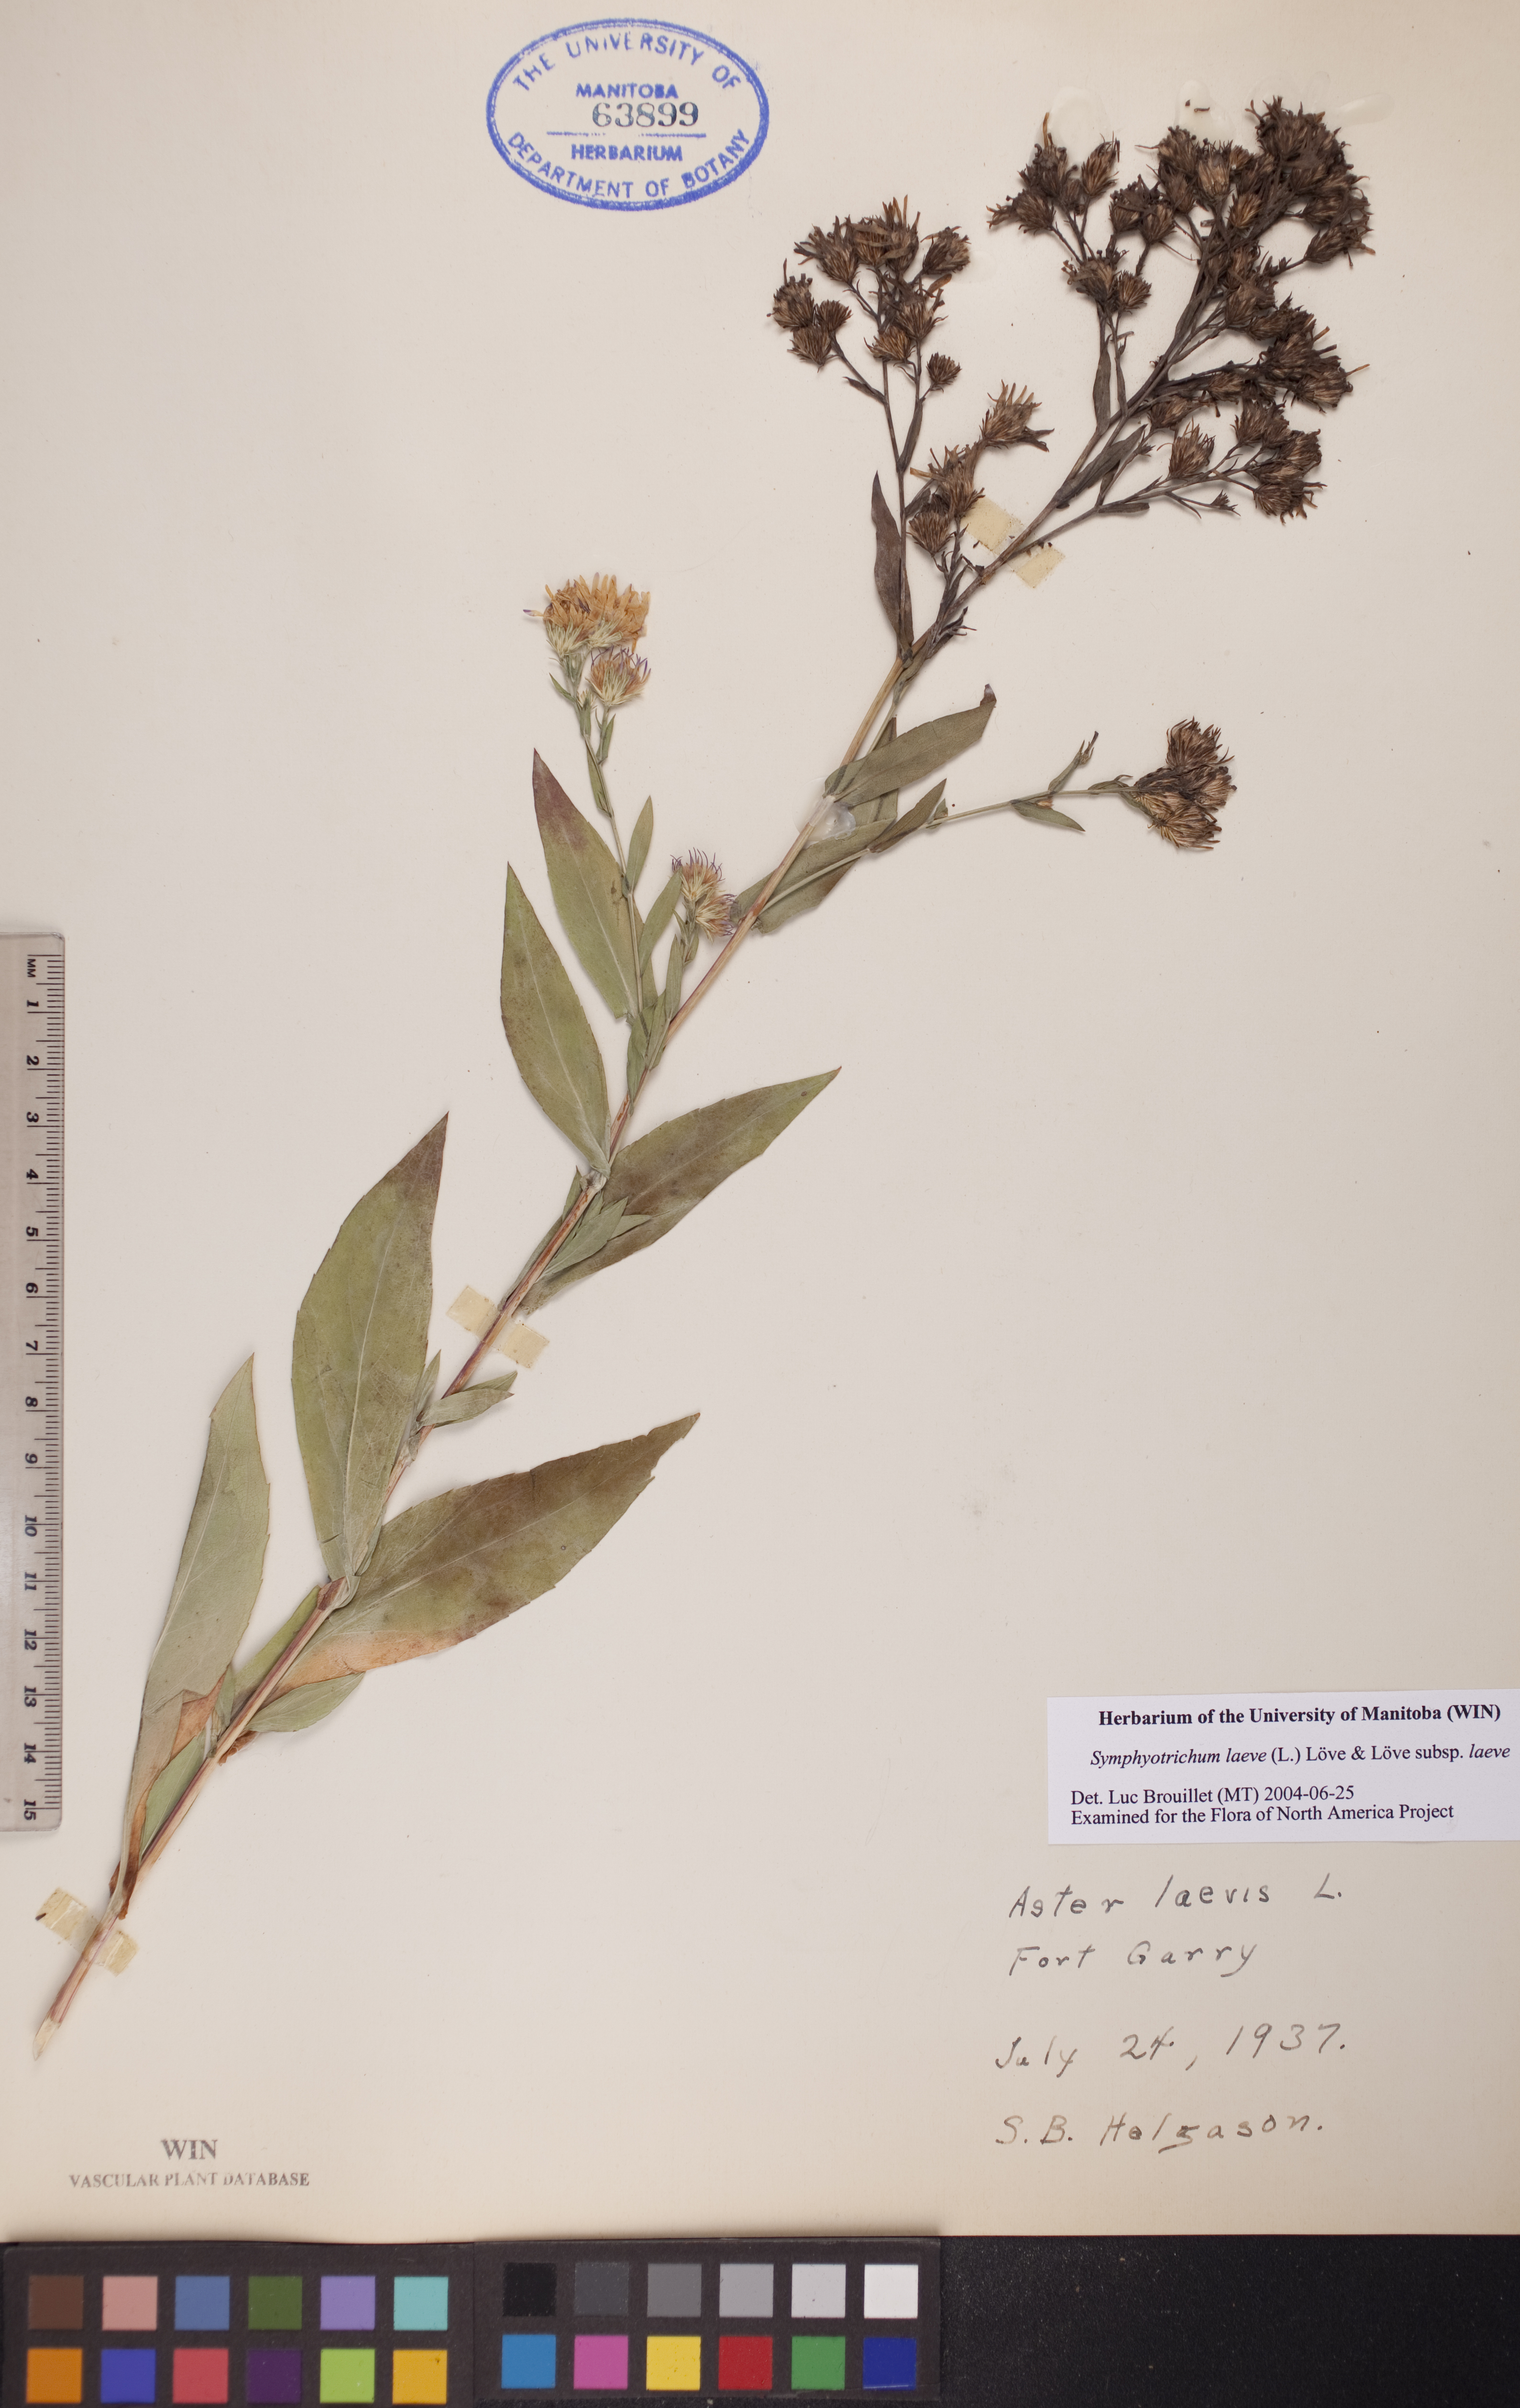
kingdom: Plantae
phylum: Tracheophyta
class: Magnoliopsida
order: Asterales
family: Asteraceae
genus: Symphyotrichum
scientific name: Symphyotrichum laeve
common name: Glaucous aster
